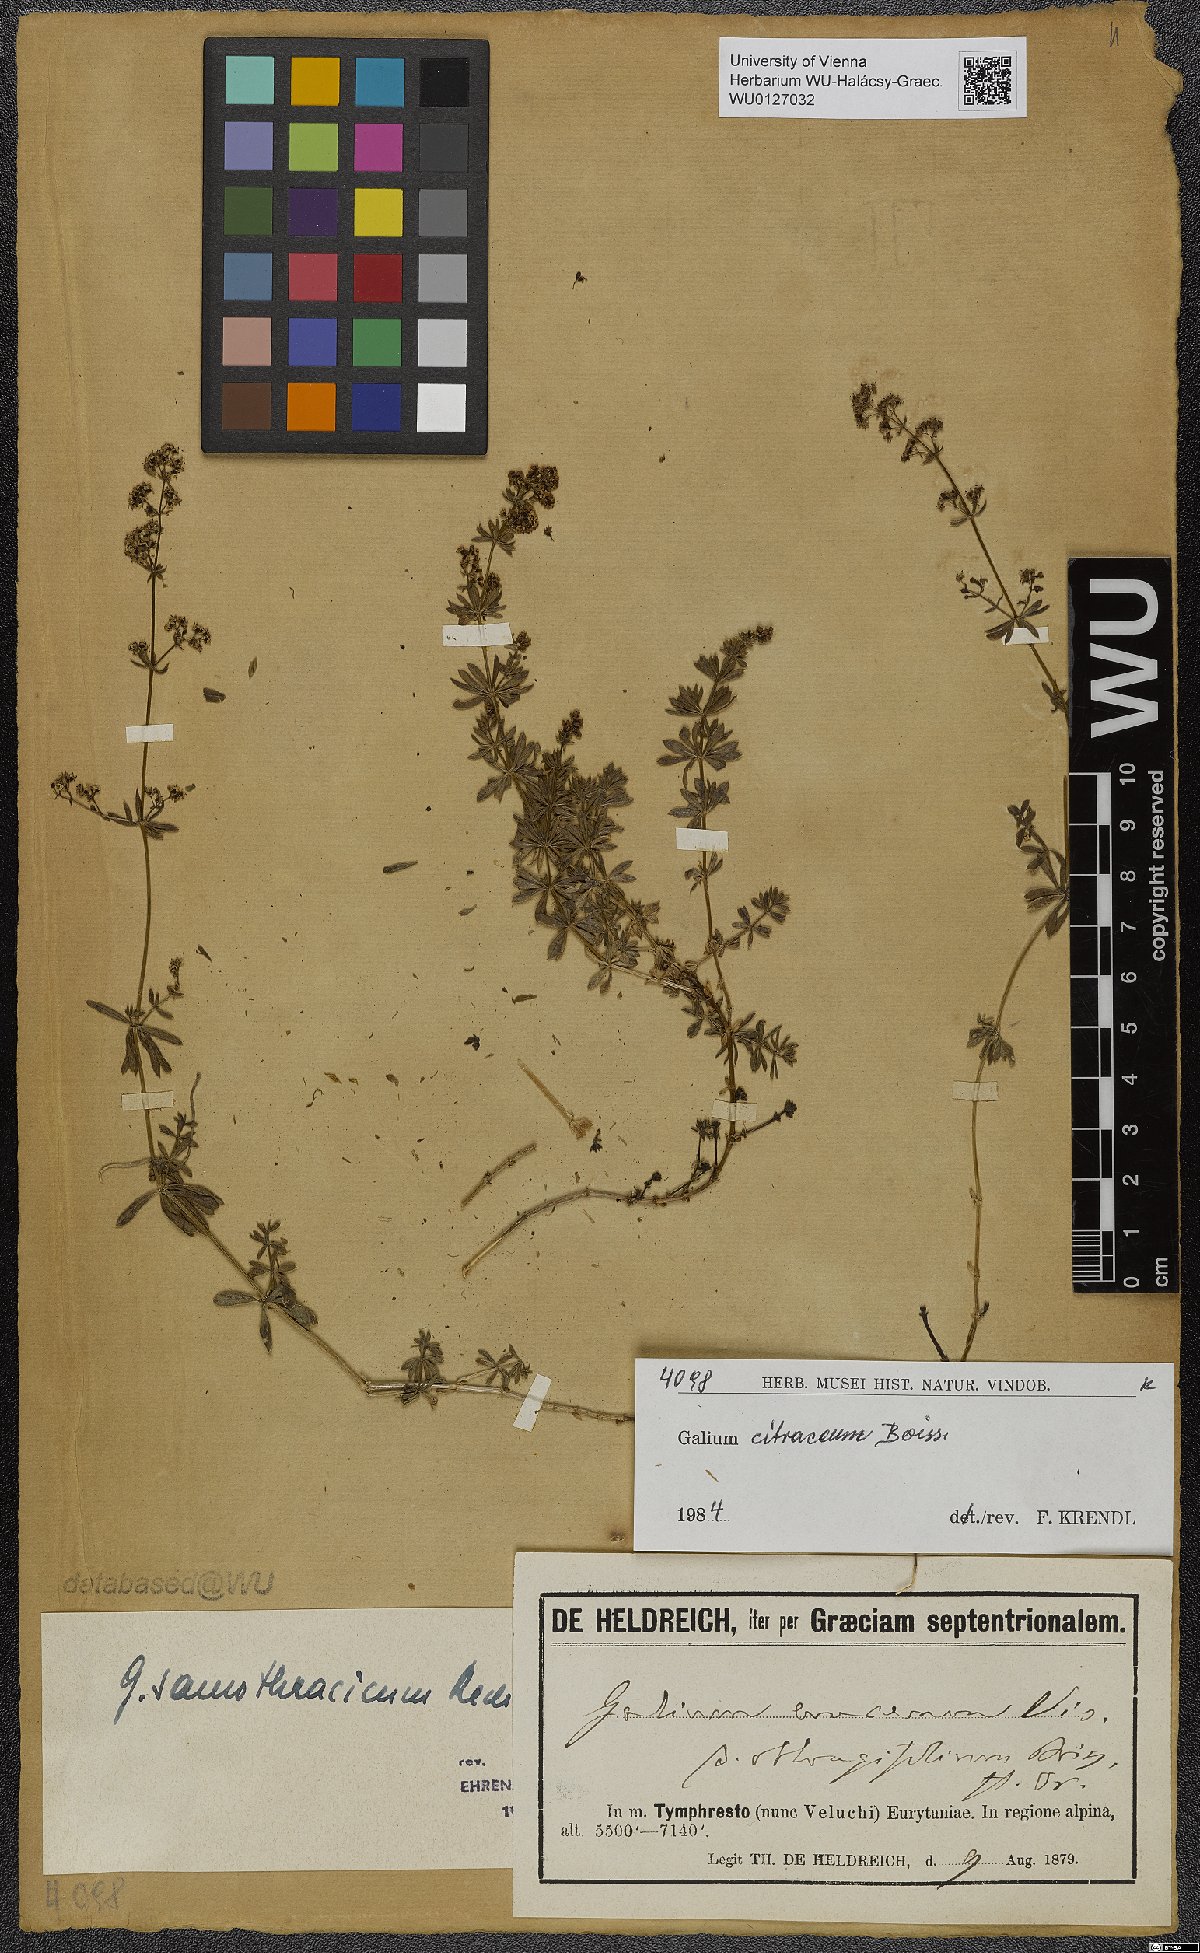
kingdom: Plantae
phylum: Tracheophyta
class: Magnoliopsida
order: Gentianales
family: Rubiaceae
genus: Galium
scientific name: Galium citraceum
